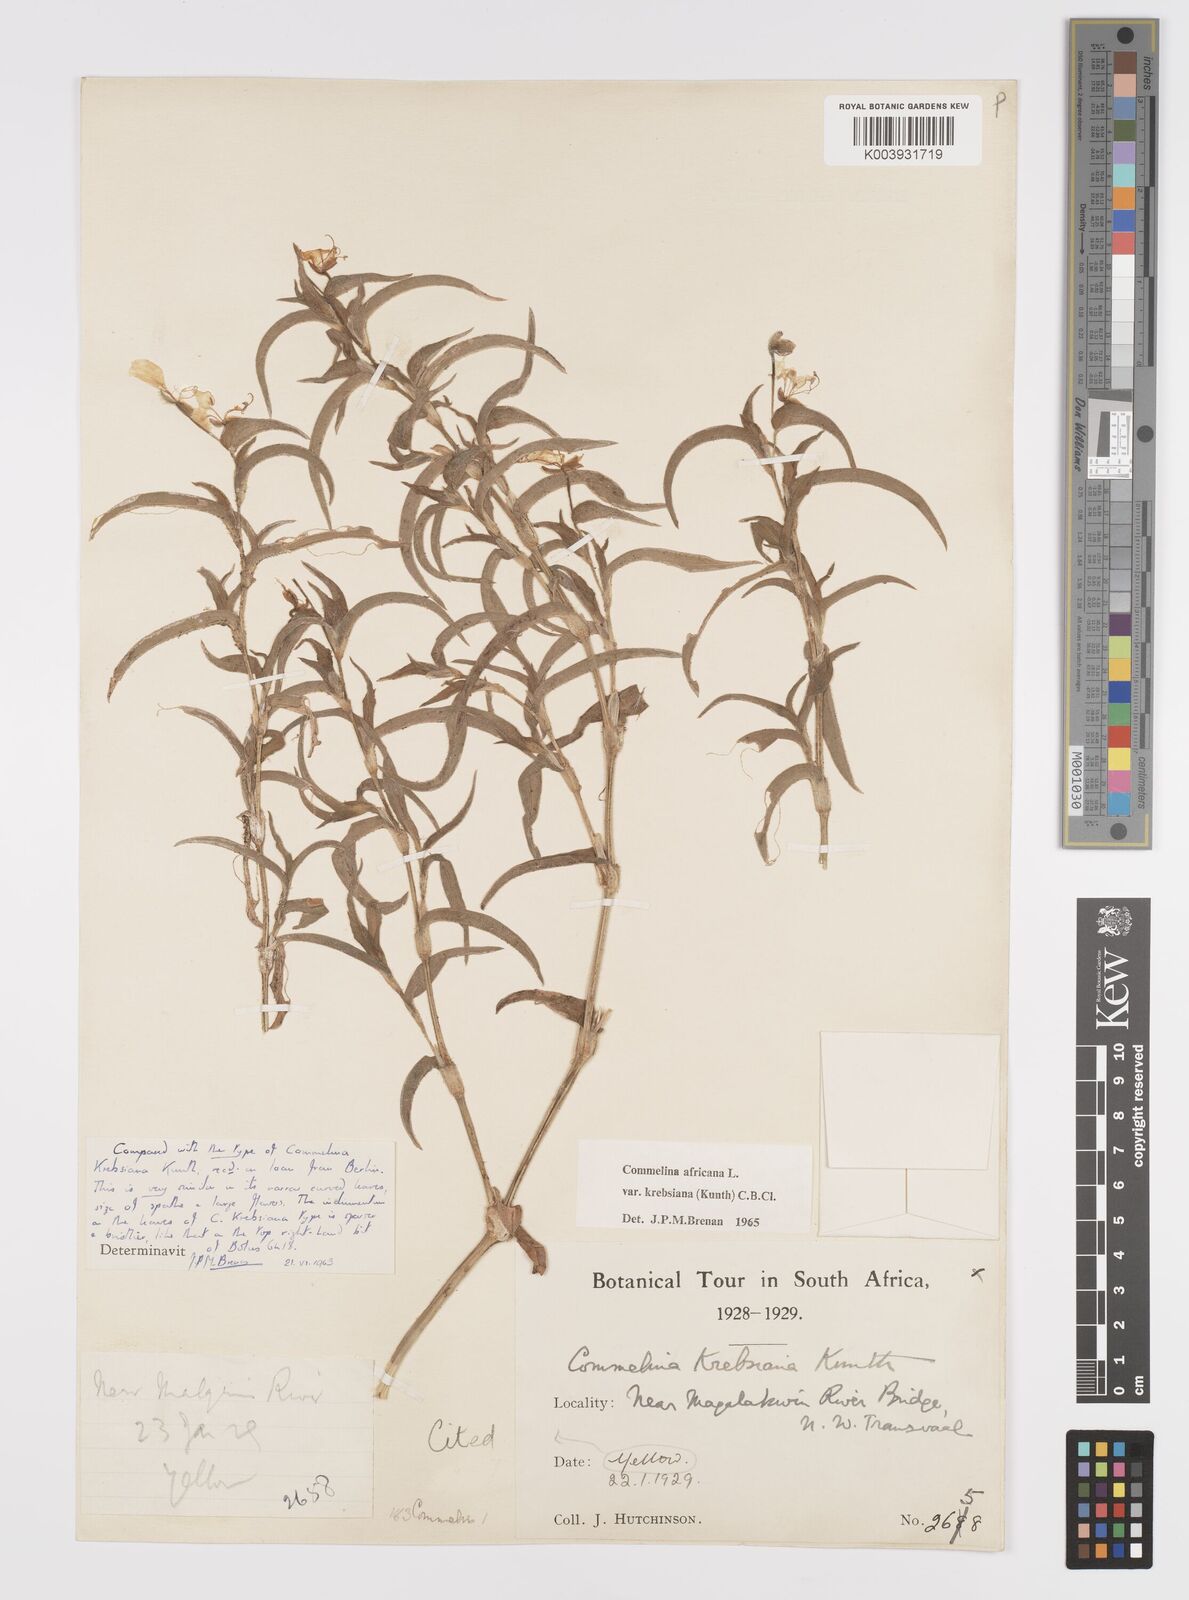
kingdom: Plantae
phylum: Tracheophyta
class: Liliopsida
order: Commelinales
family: Commelinaceae
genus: Commelina
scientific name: Commelina africana
